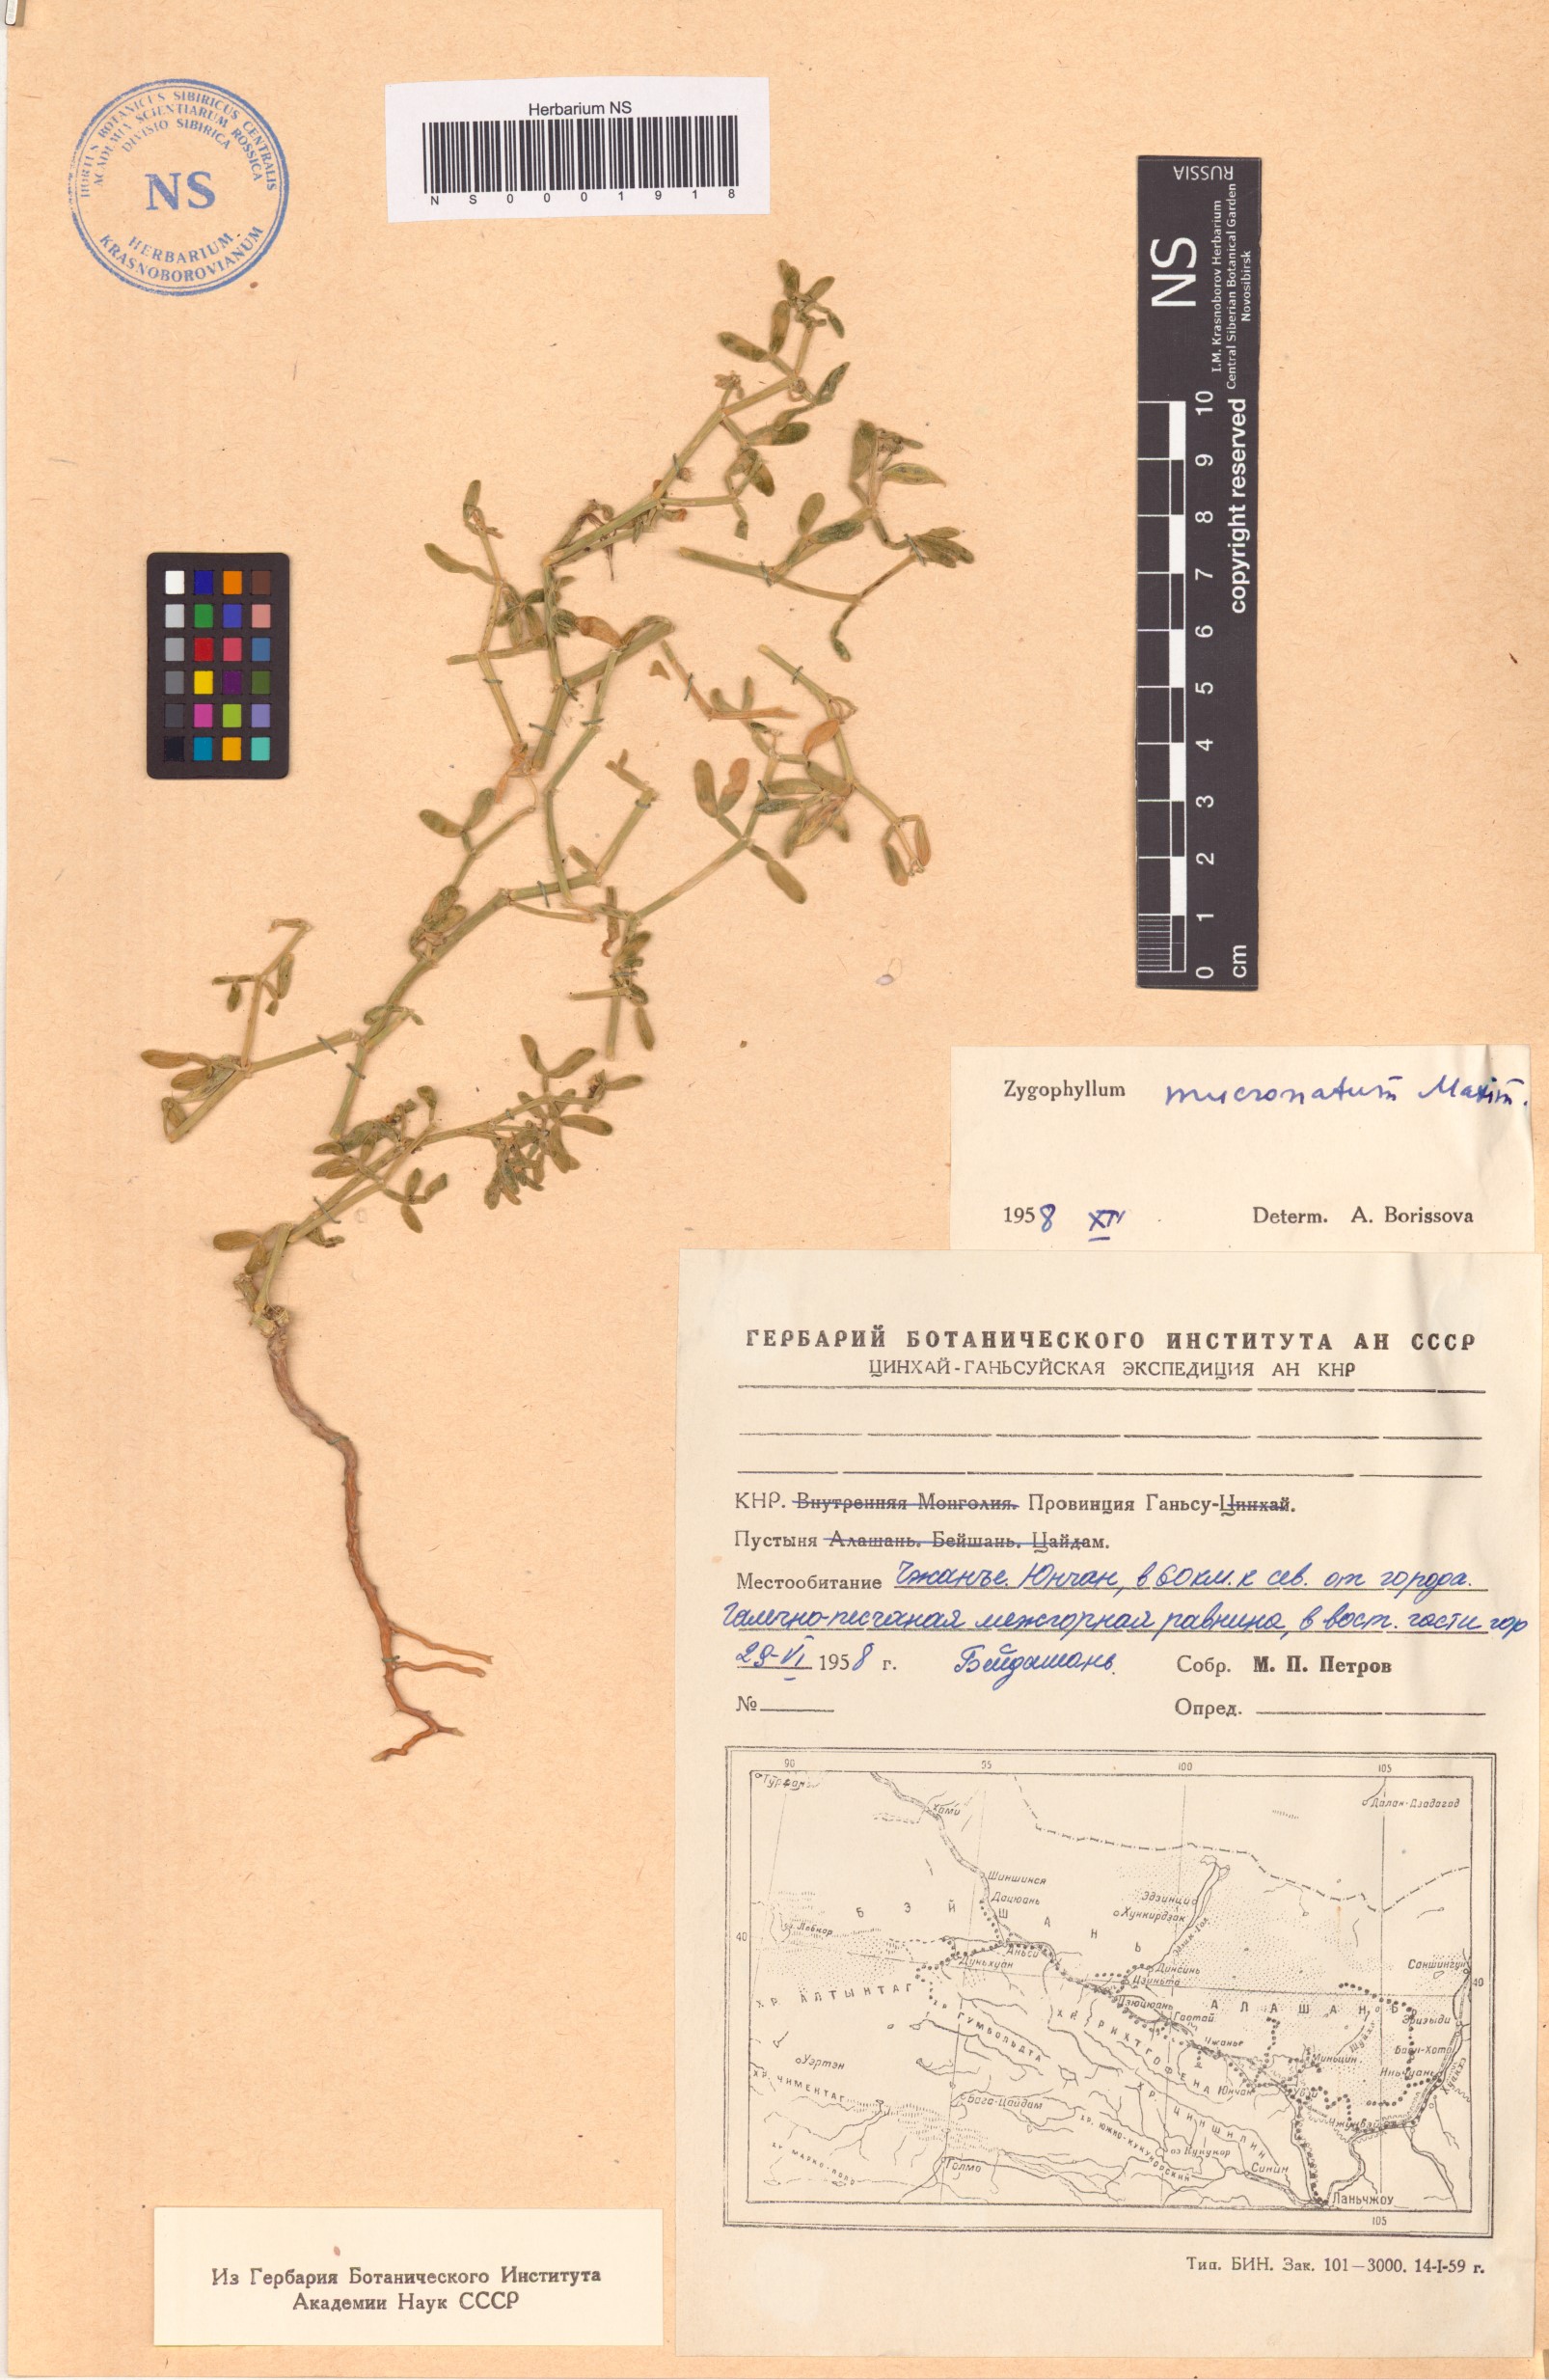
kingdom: Plantae
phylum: Tracheophyta
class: Magnoliopsida
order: Zygophyllales
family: Zygophyllaceae
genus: Zygophyllum
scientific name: Zygophyllum mucronatum
